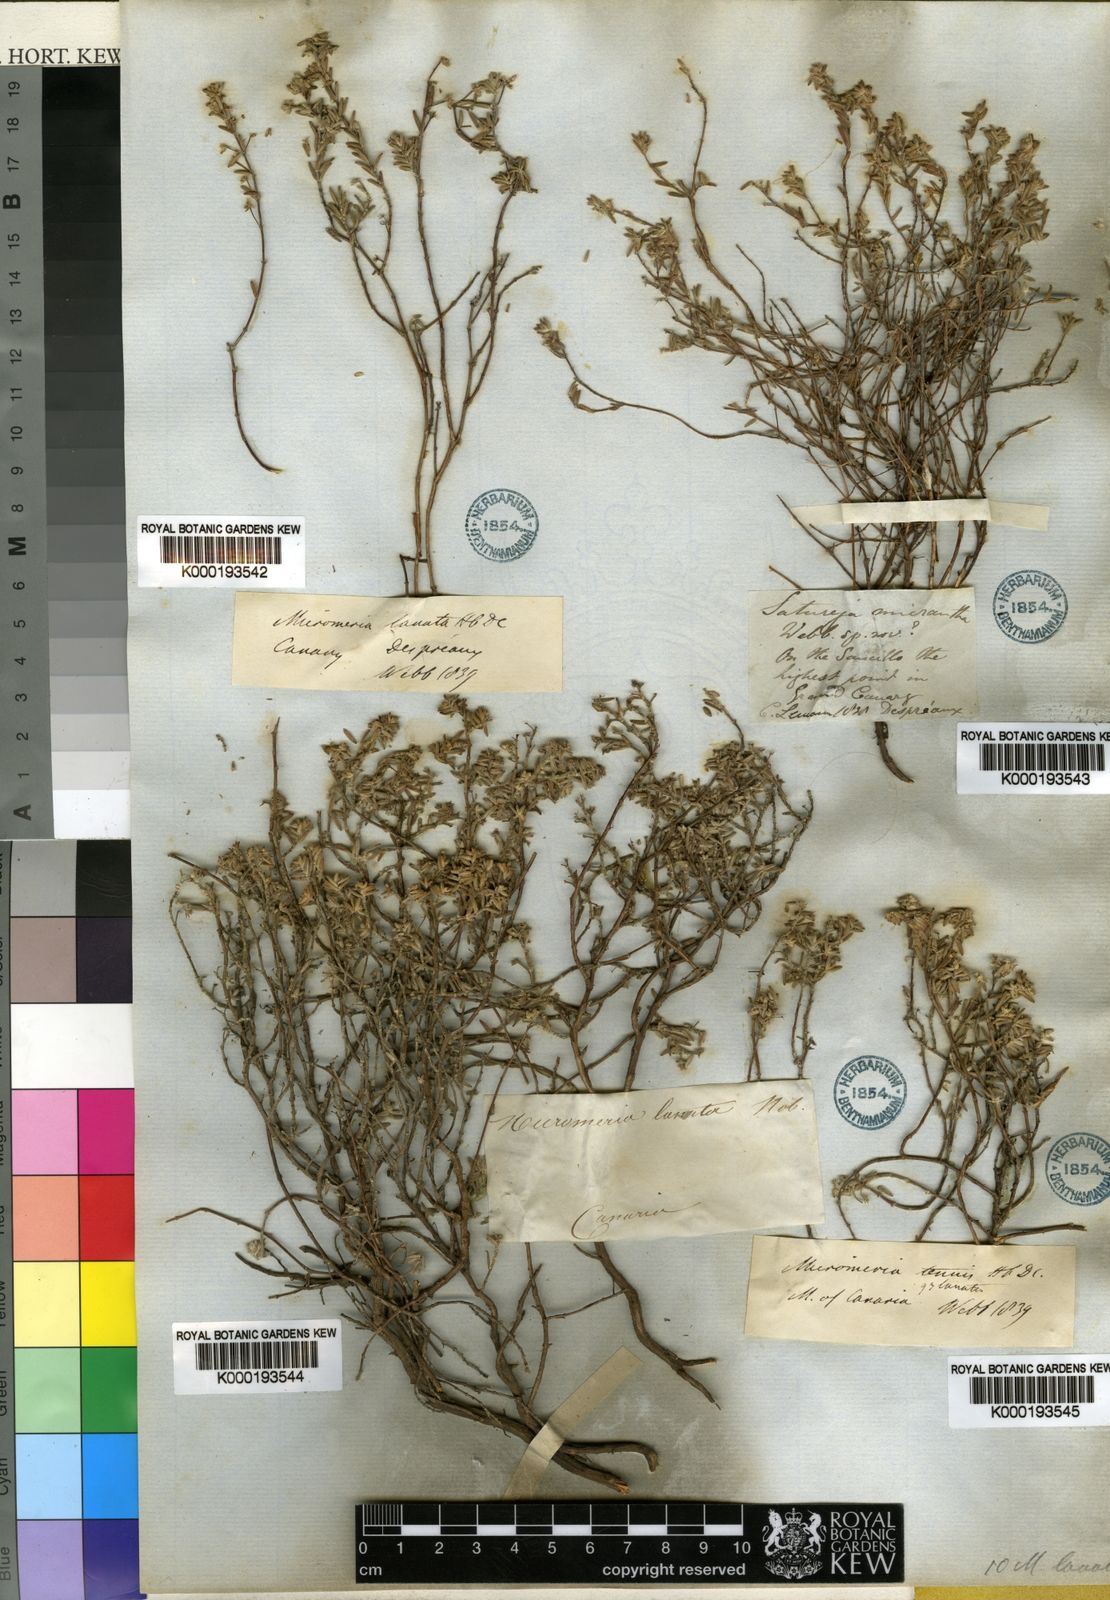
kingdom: Plantae
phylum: Tracheophyta
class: Magnoliopsida
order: Lamiales
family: Lamiaceae
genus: Micromeria
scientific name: Micromeria lanata
